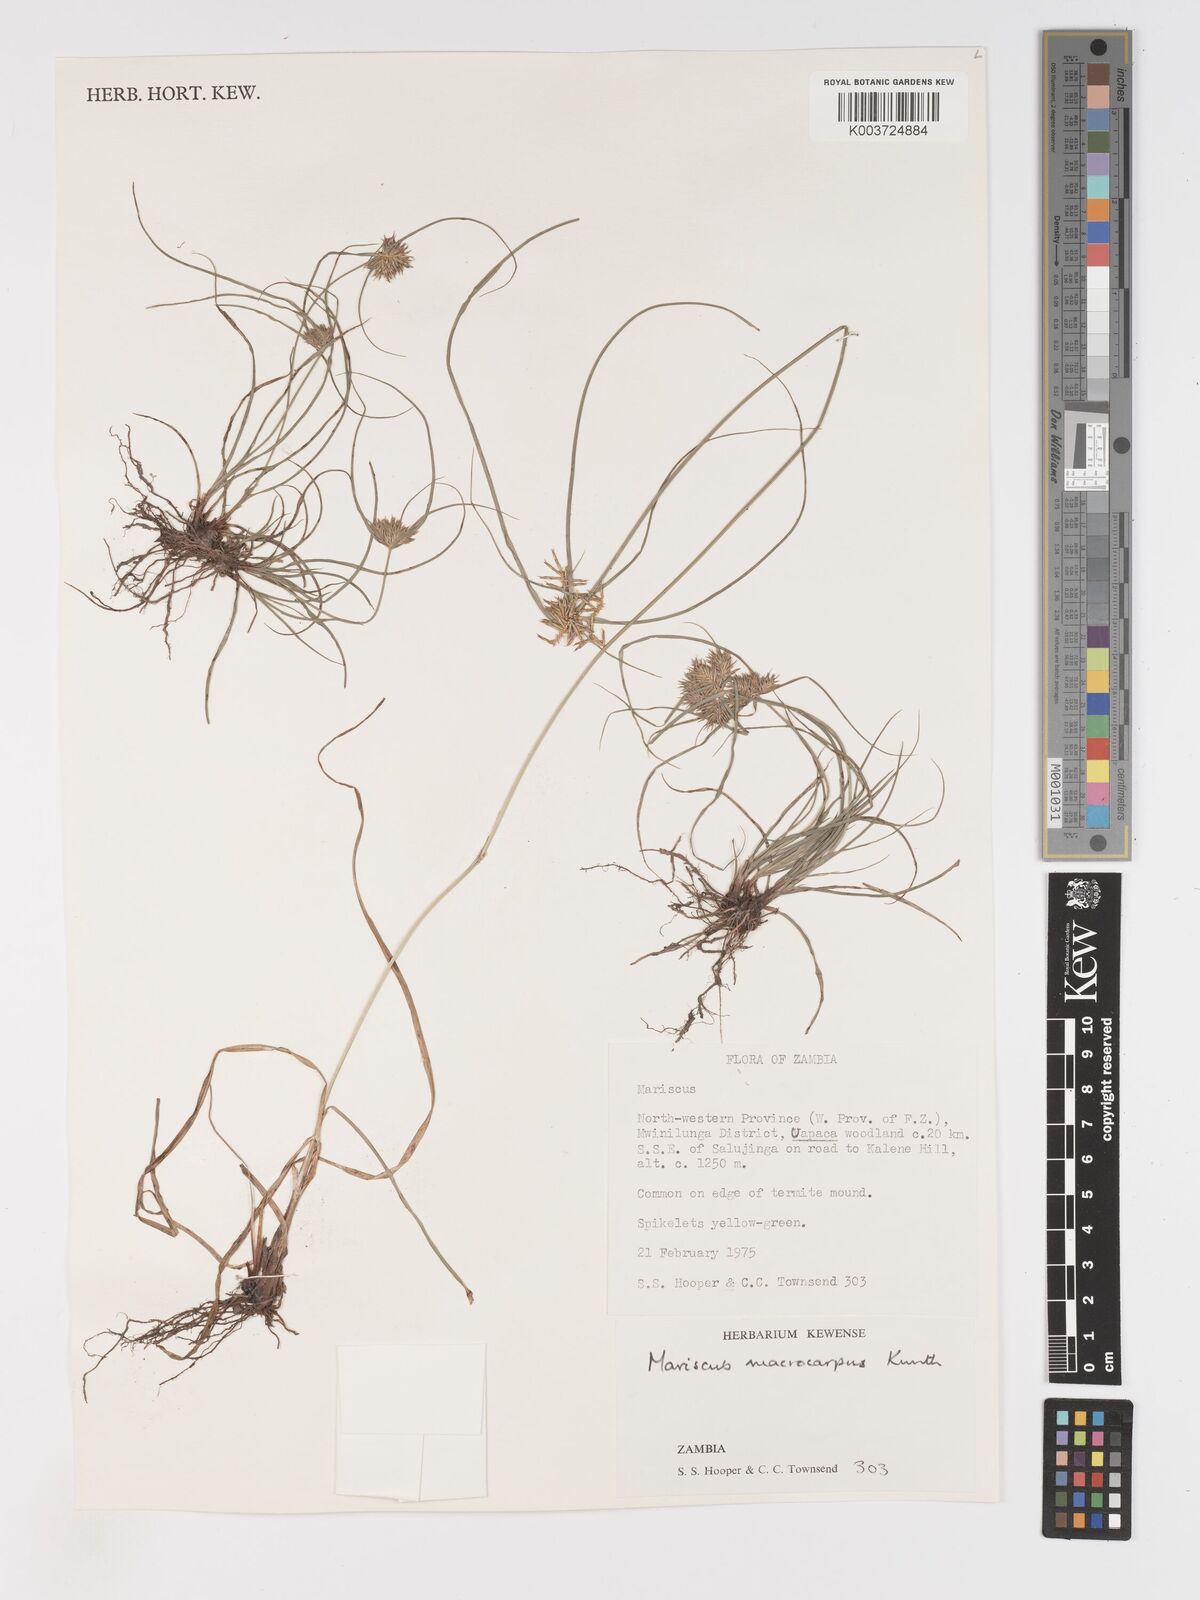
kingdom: Plantae
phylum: Tracheophyta
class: Liliopsida
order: Poales
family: Cyperaceae
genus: Cyperus
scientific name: Cyperus macrocarpus
